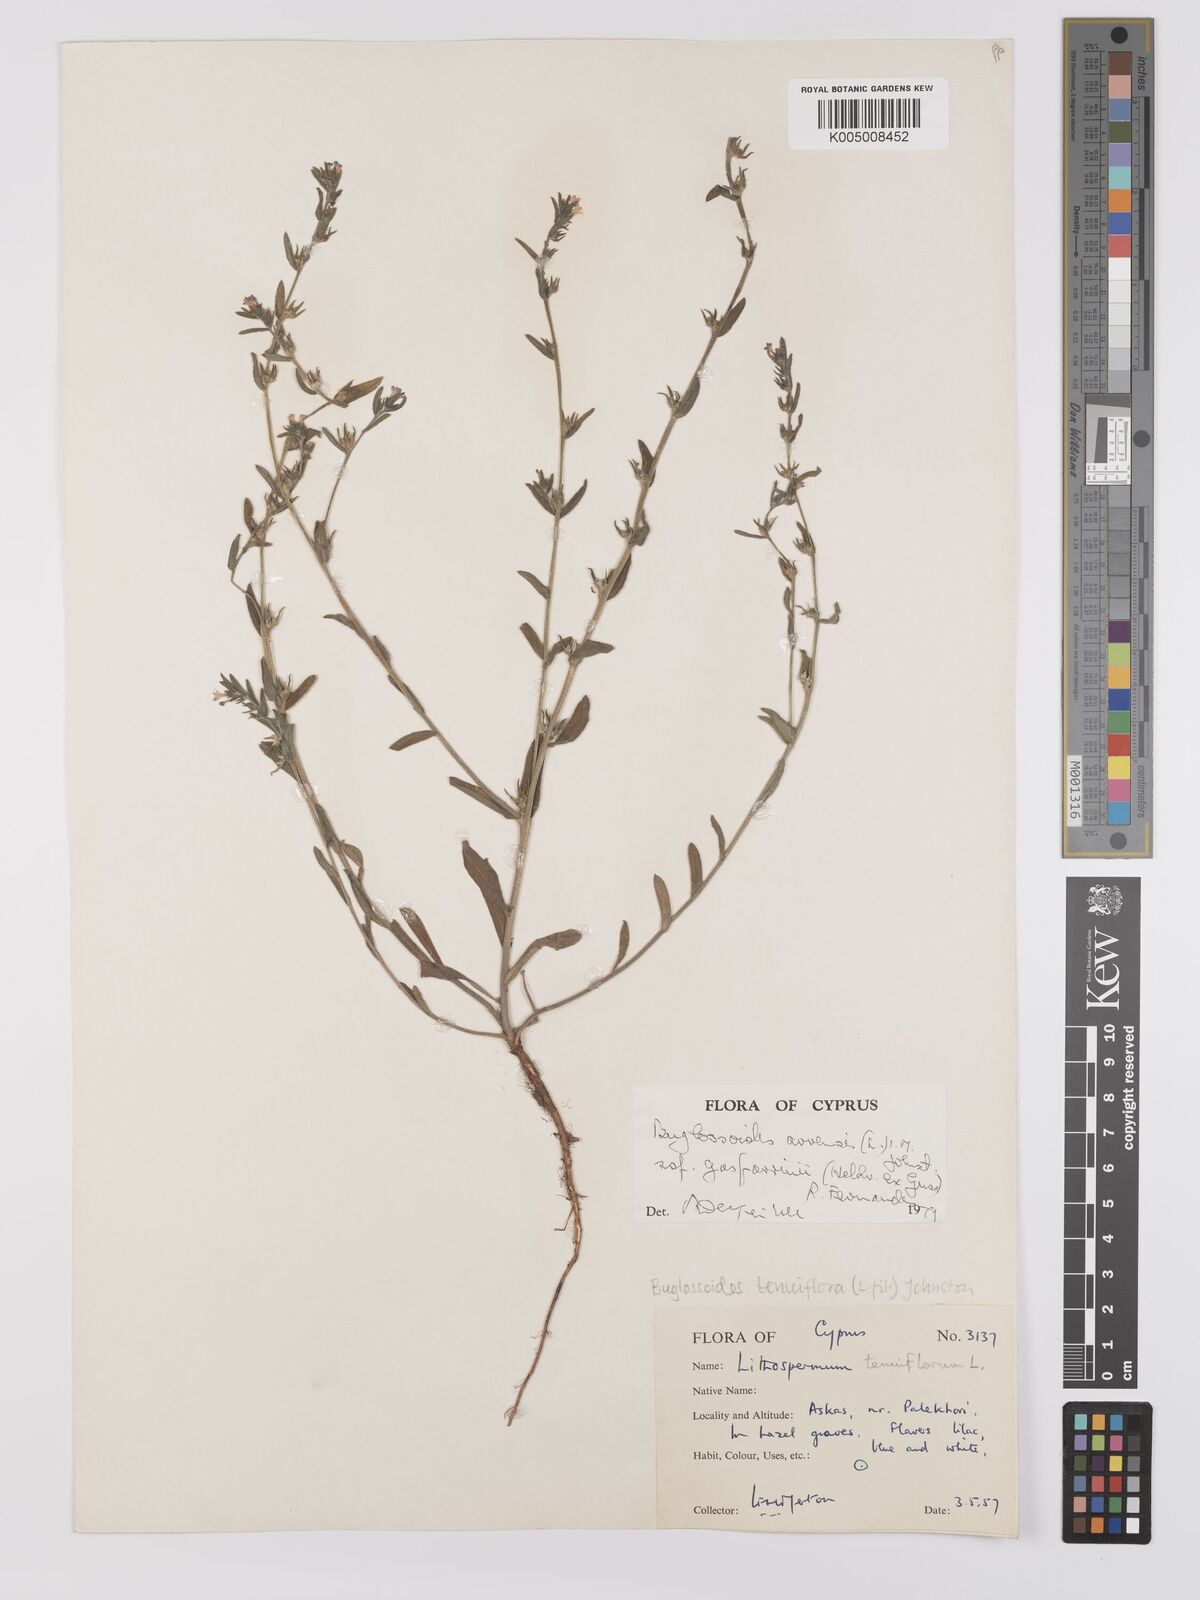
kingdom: Plantae
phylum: Tracheophyta
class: Magnoliopsida
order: Boraginales
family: Boraginaceae
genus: Buglossoides
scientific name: Buglossoides incrassata
